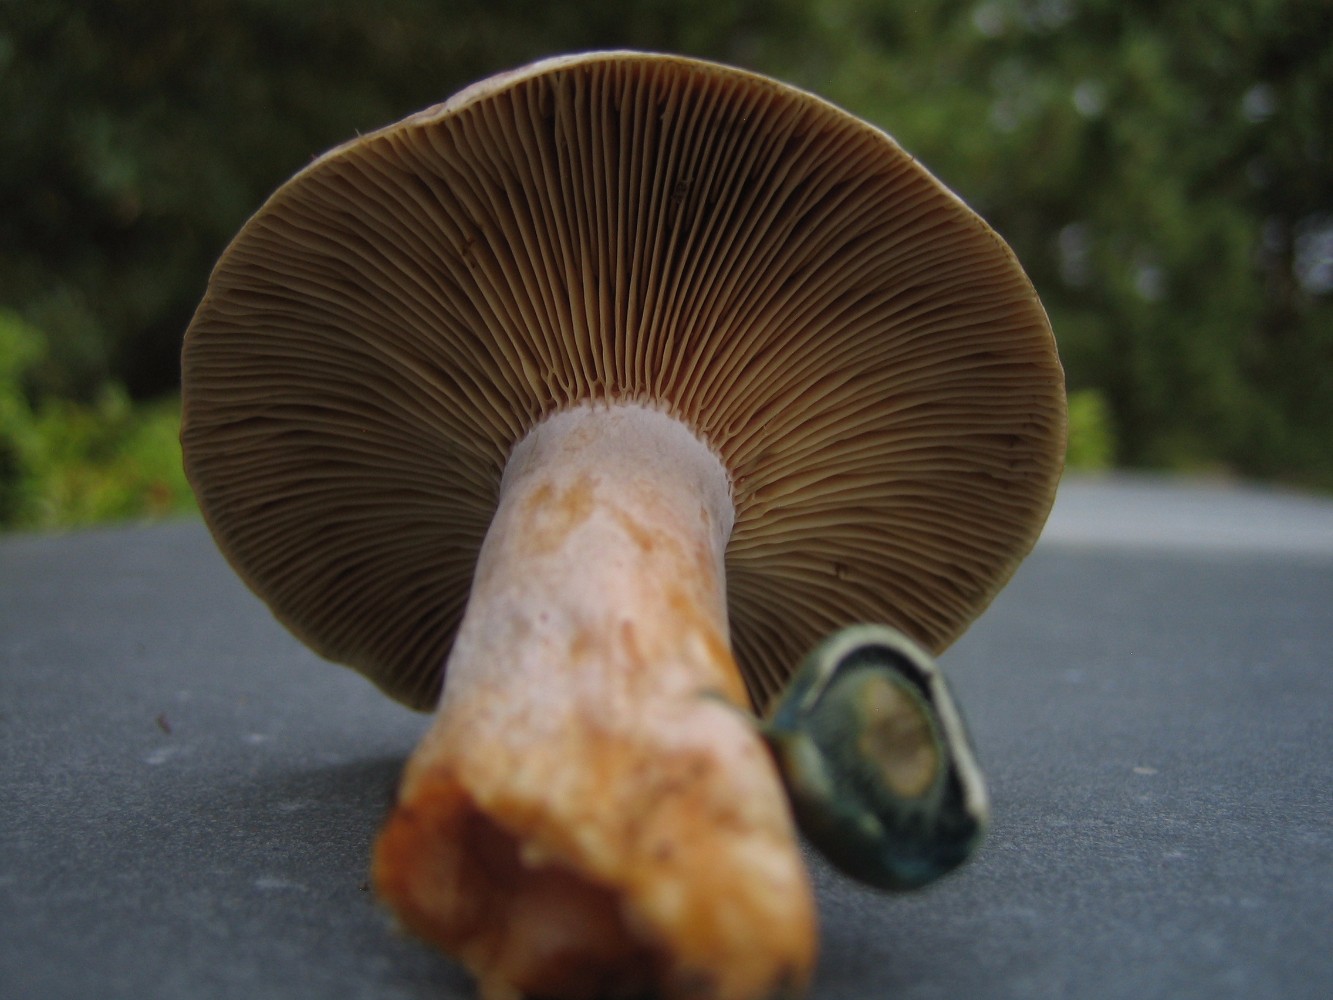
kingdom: Fungi
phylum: Basidiomycota
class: Agaricomycetes
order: Russulales
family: Russulaceae
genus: Lactarius
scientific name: Lactarius quieticolor
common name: tvefarvet mælkehat
